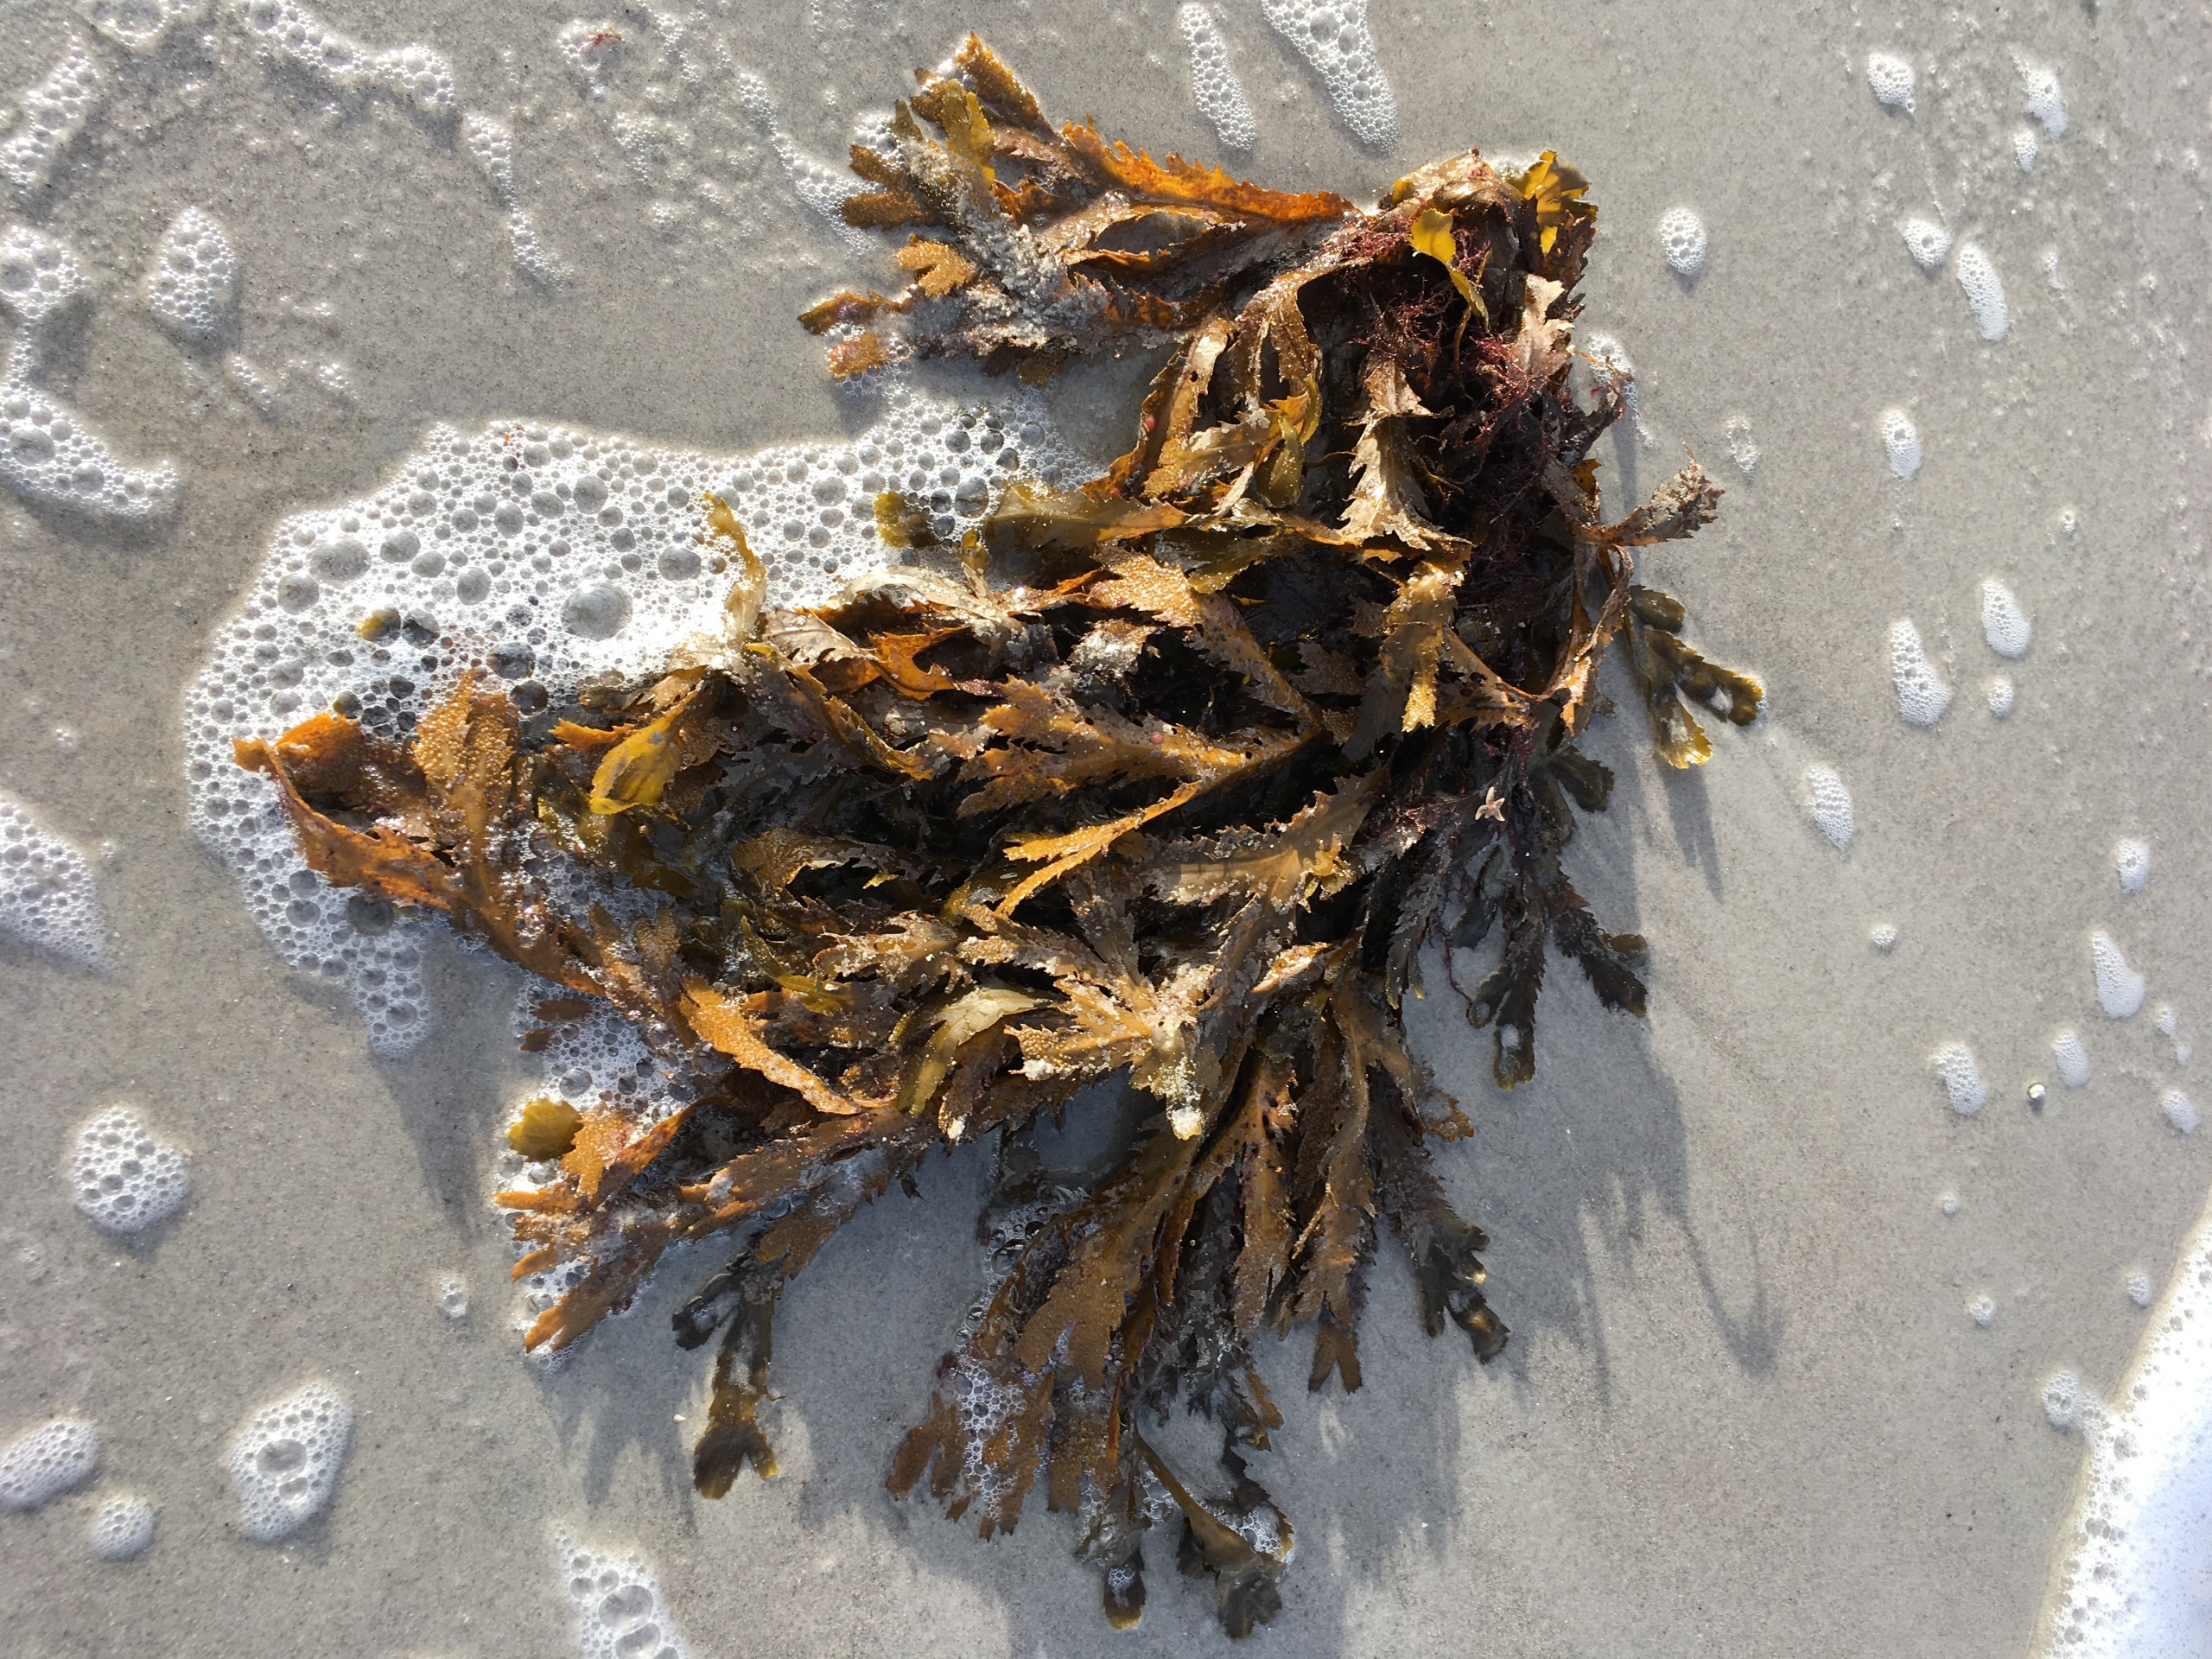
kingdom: Chromista
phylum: Ochrophyta
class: Phaeophyceae
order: Fucales
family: Fucaceae
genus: Fucus
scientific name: Fucus serratus
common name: Savtang
